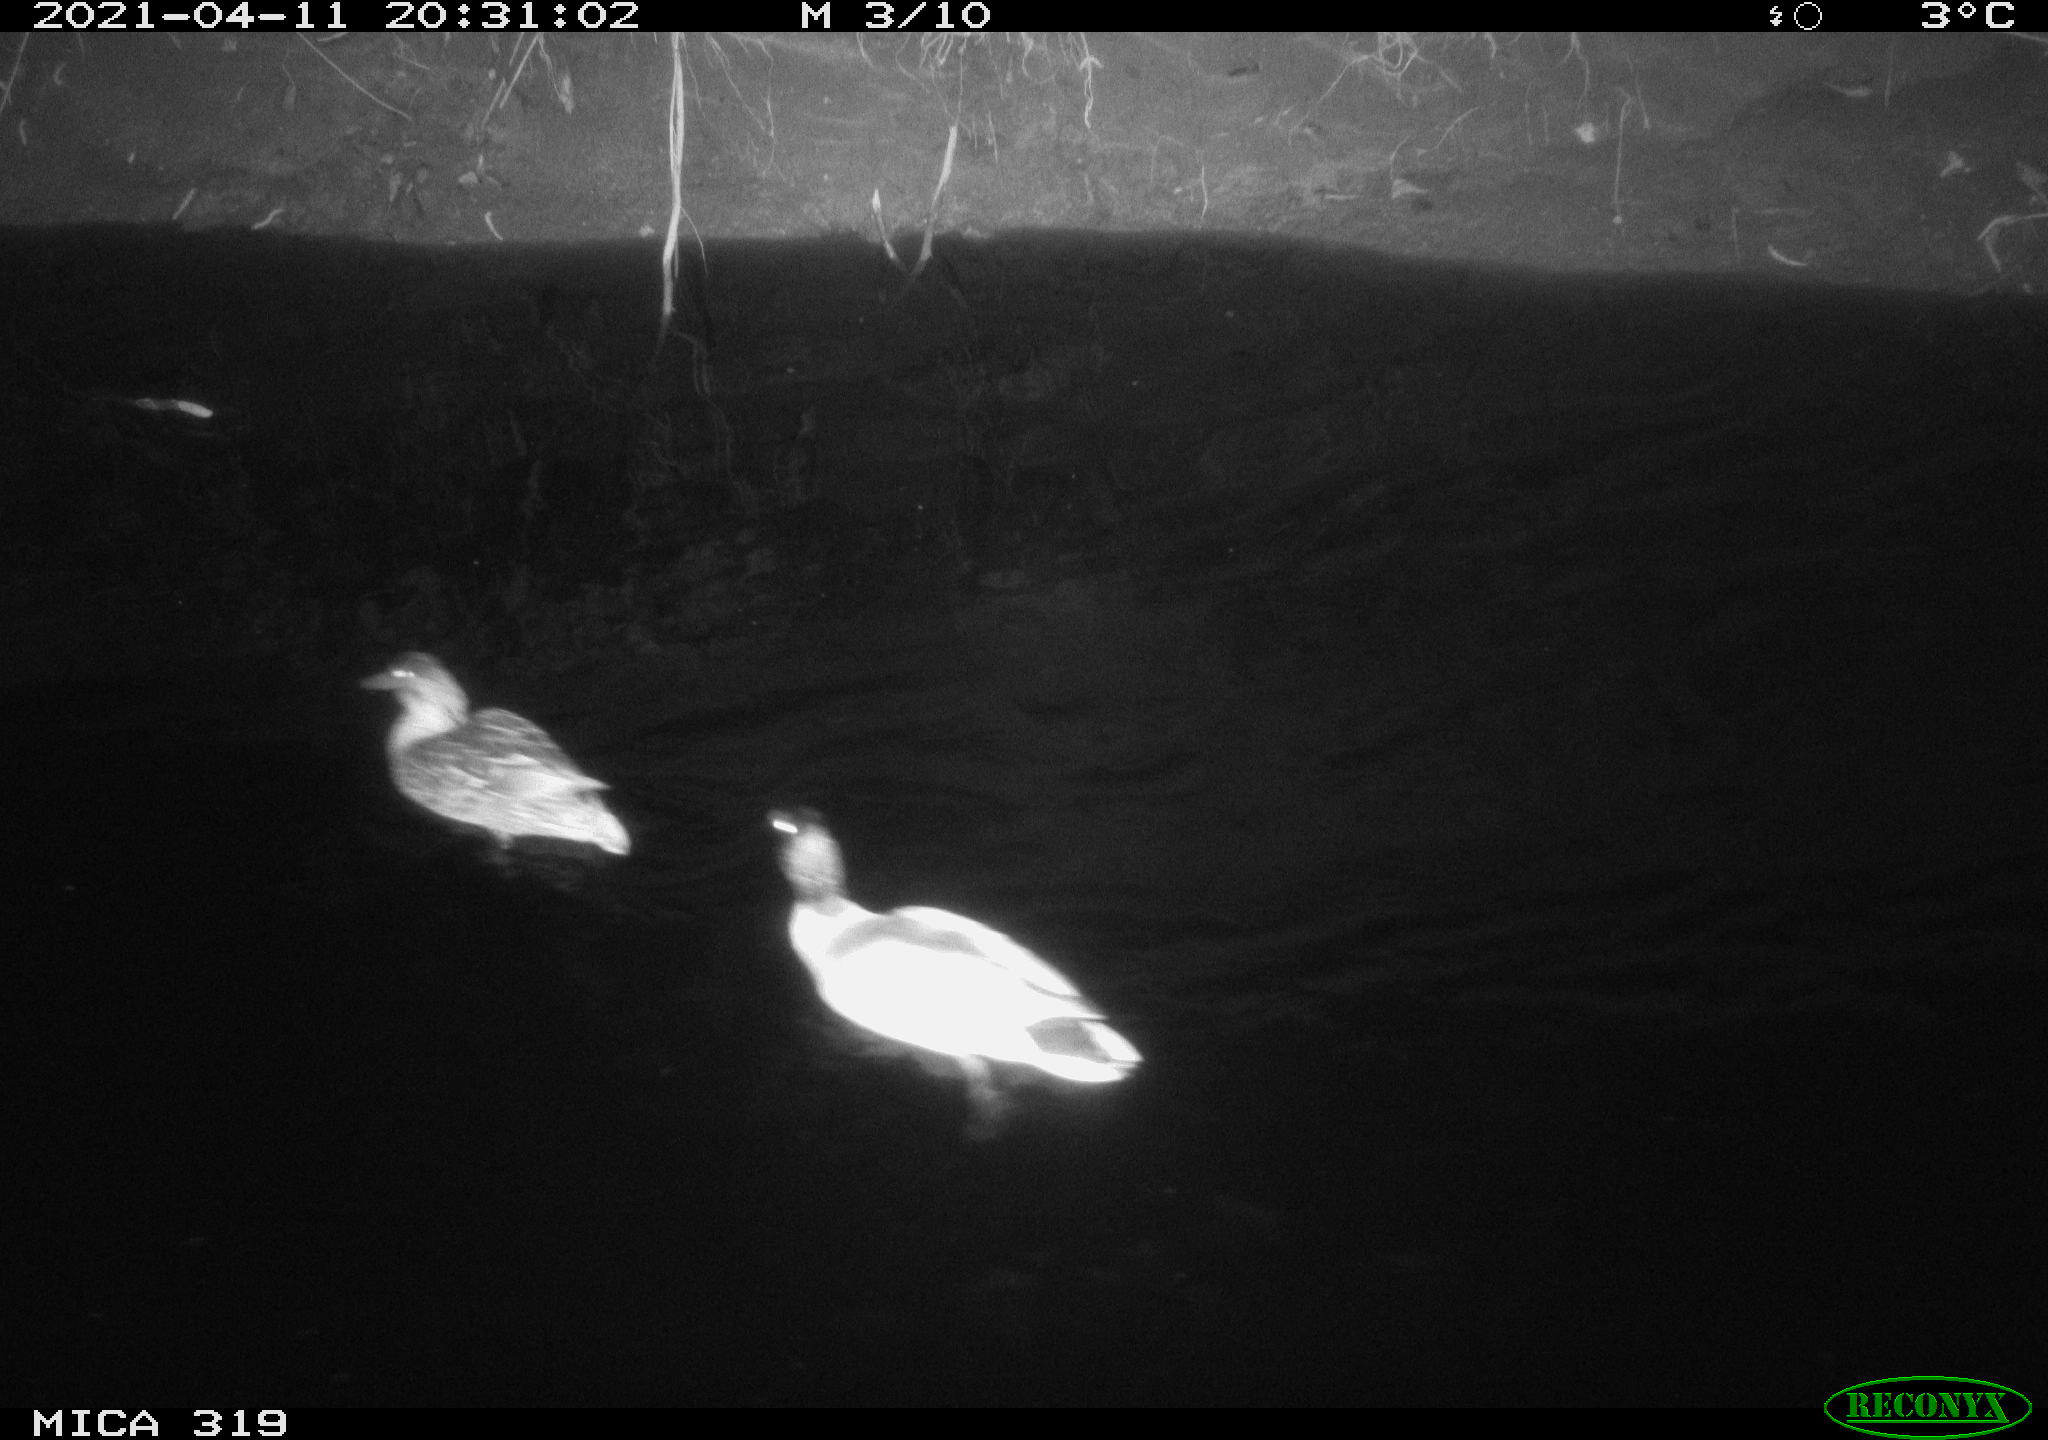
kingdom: Animalia
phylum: Chordata
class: Aves
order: Anseriformes
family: Anatidae
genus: Anas
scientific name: Anas platyrhynchos
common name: Mallard
